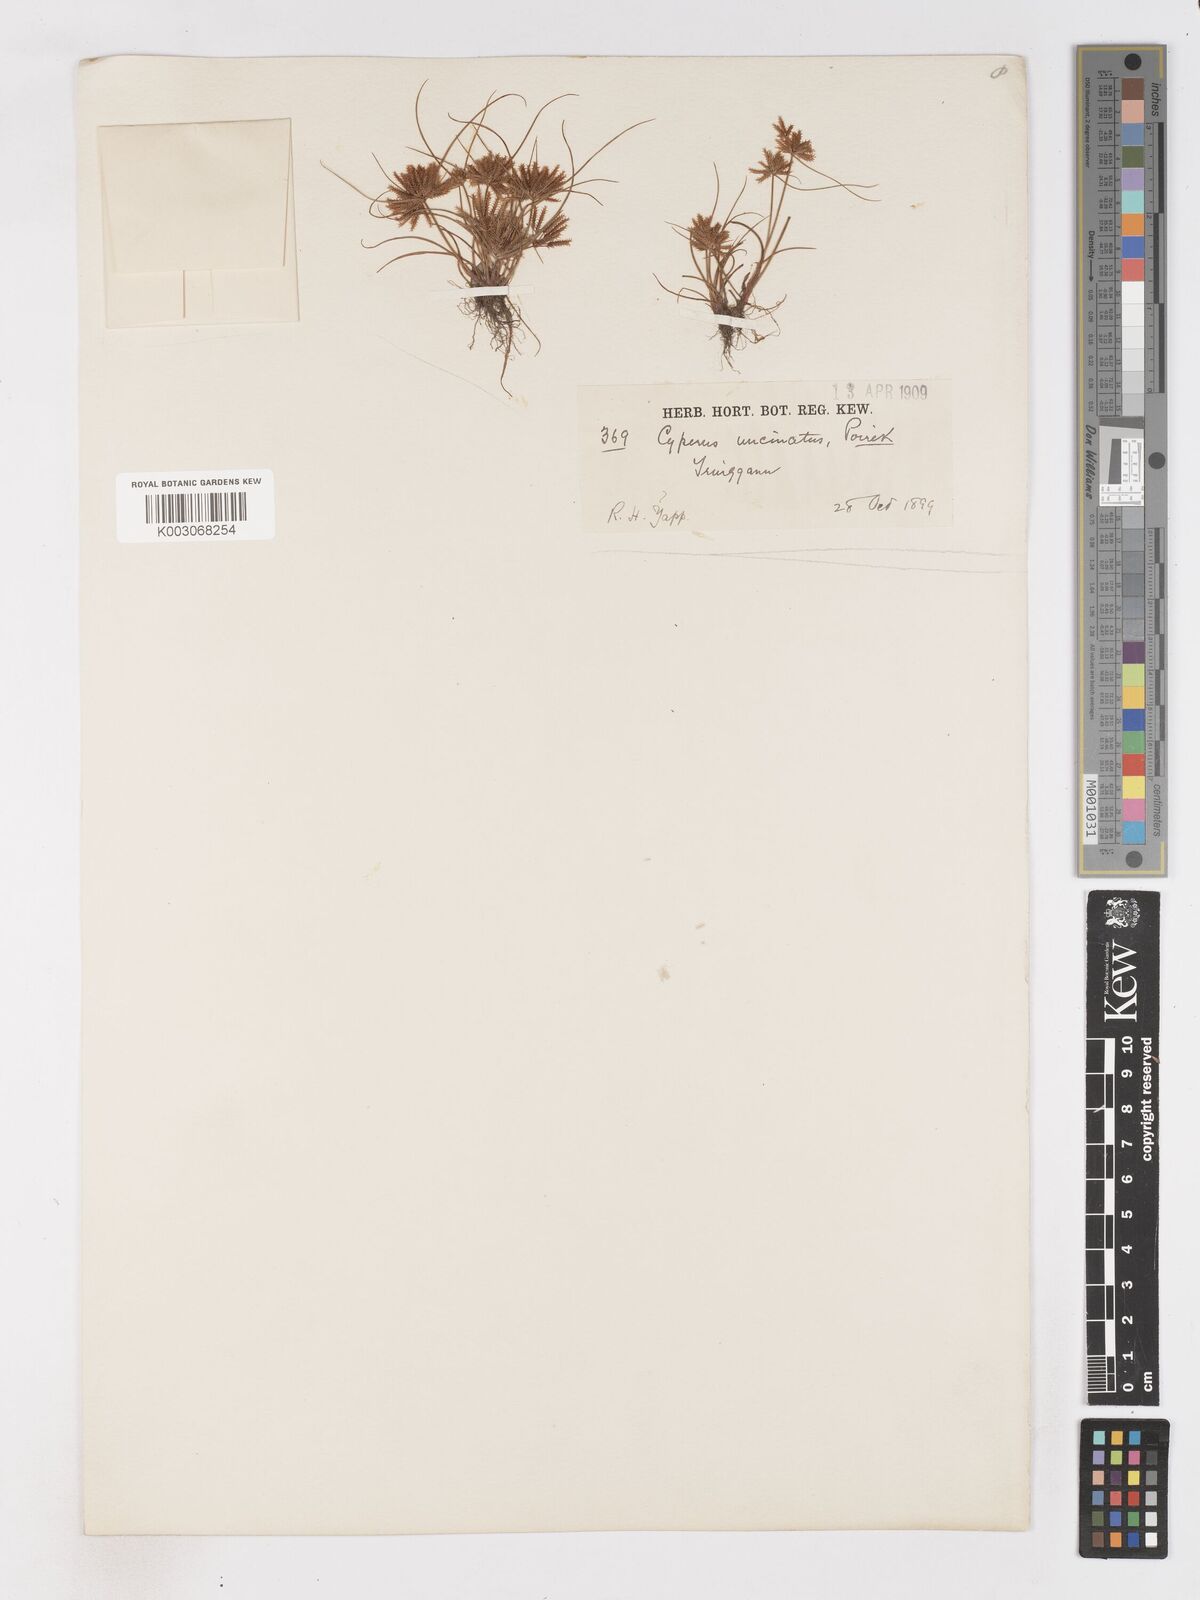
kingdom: Plantae
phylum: Tracheophyta
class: Liliopsida
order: Poales
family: Cyperaceae
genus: Cyperus
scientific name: Cyperus
